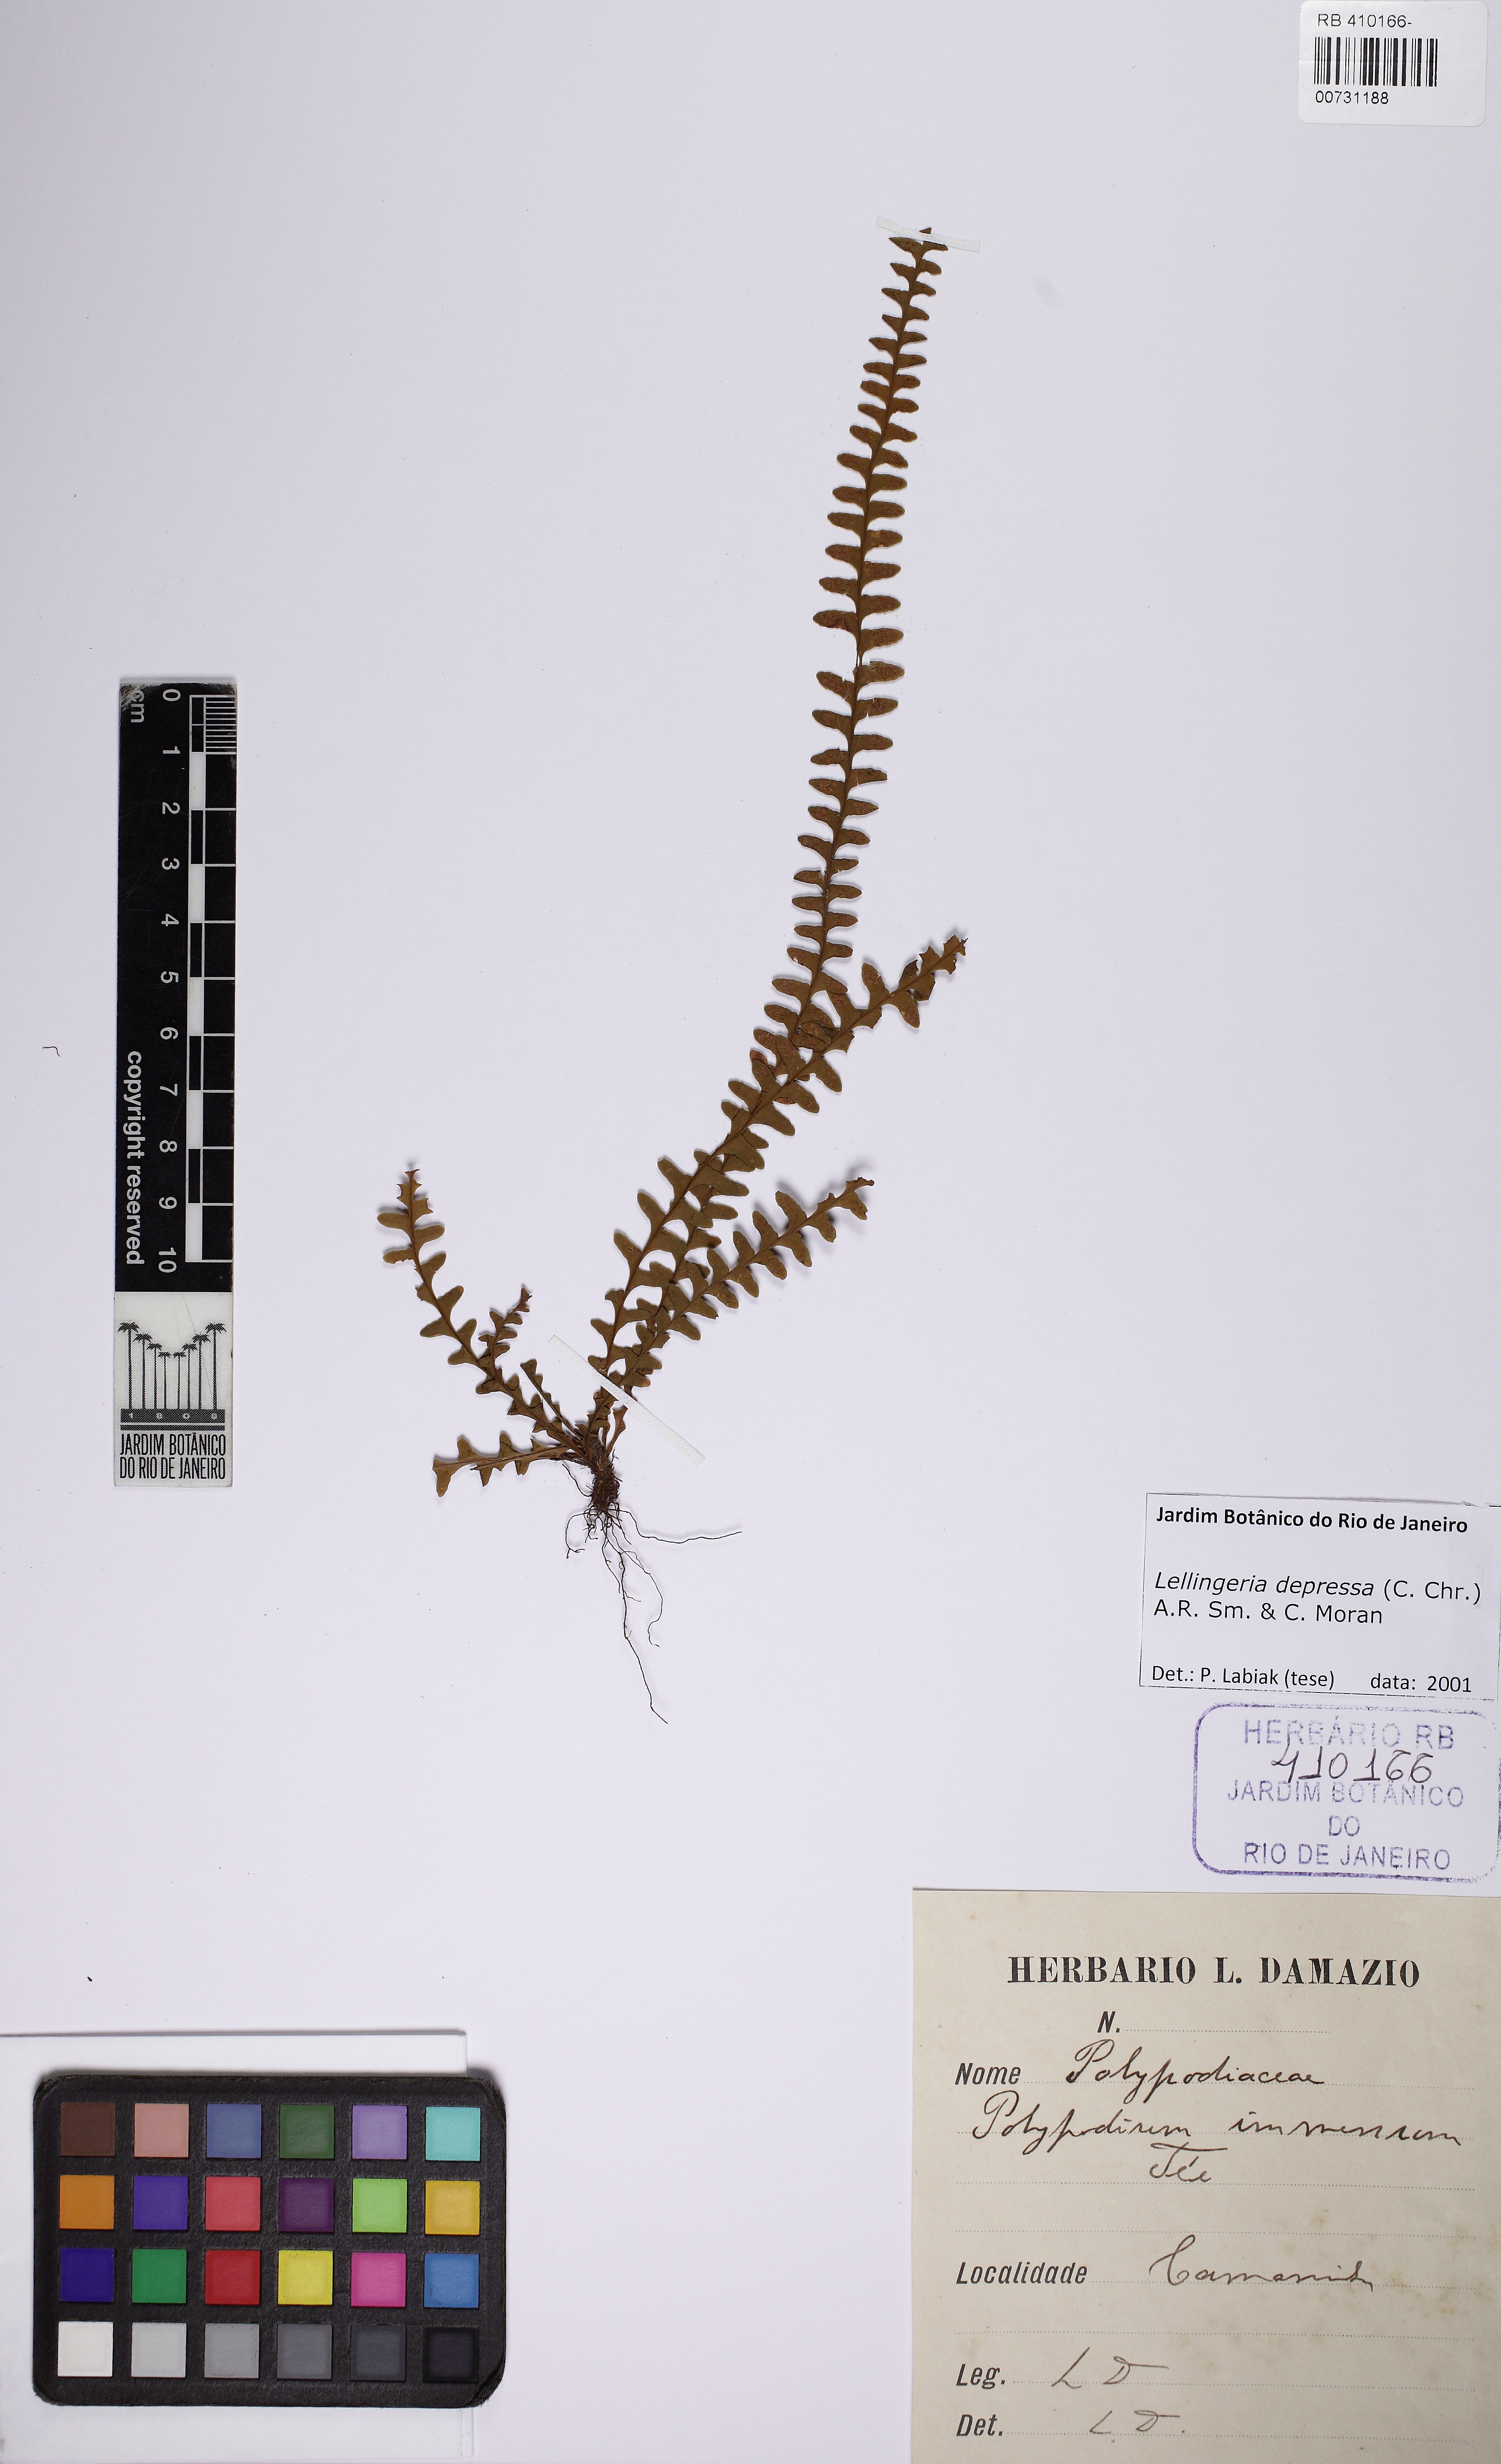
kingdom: Plantae
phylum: Tracheophyta
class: Polypodiopsida
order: Polypodiales
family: Polypodiaceae
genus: Lellingeria
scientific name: Lellingeria depressa
